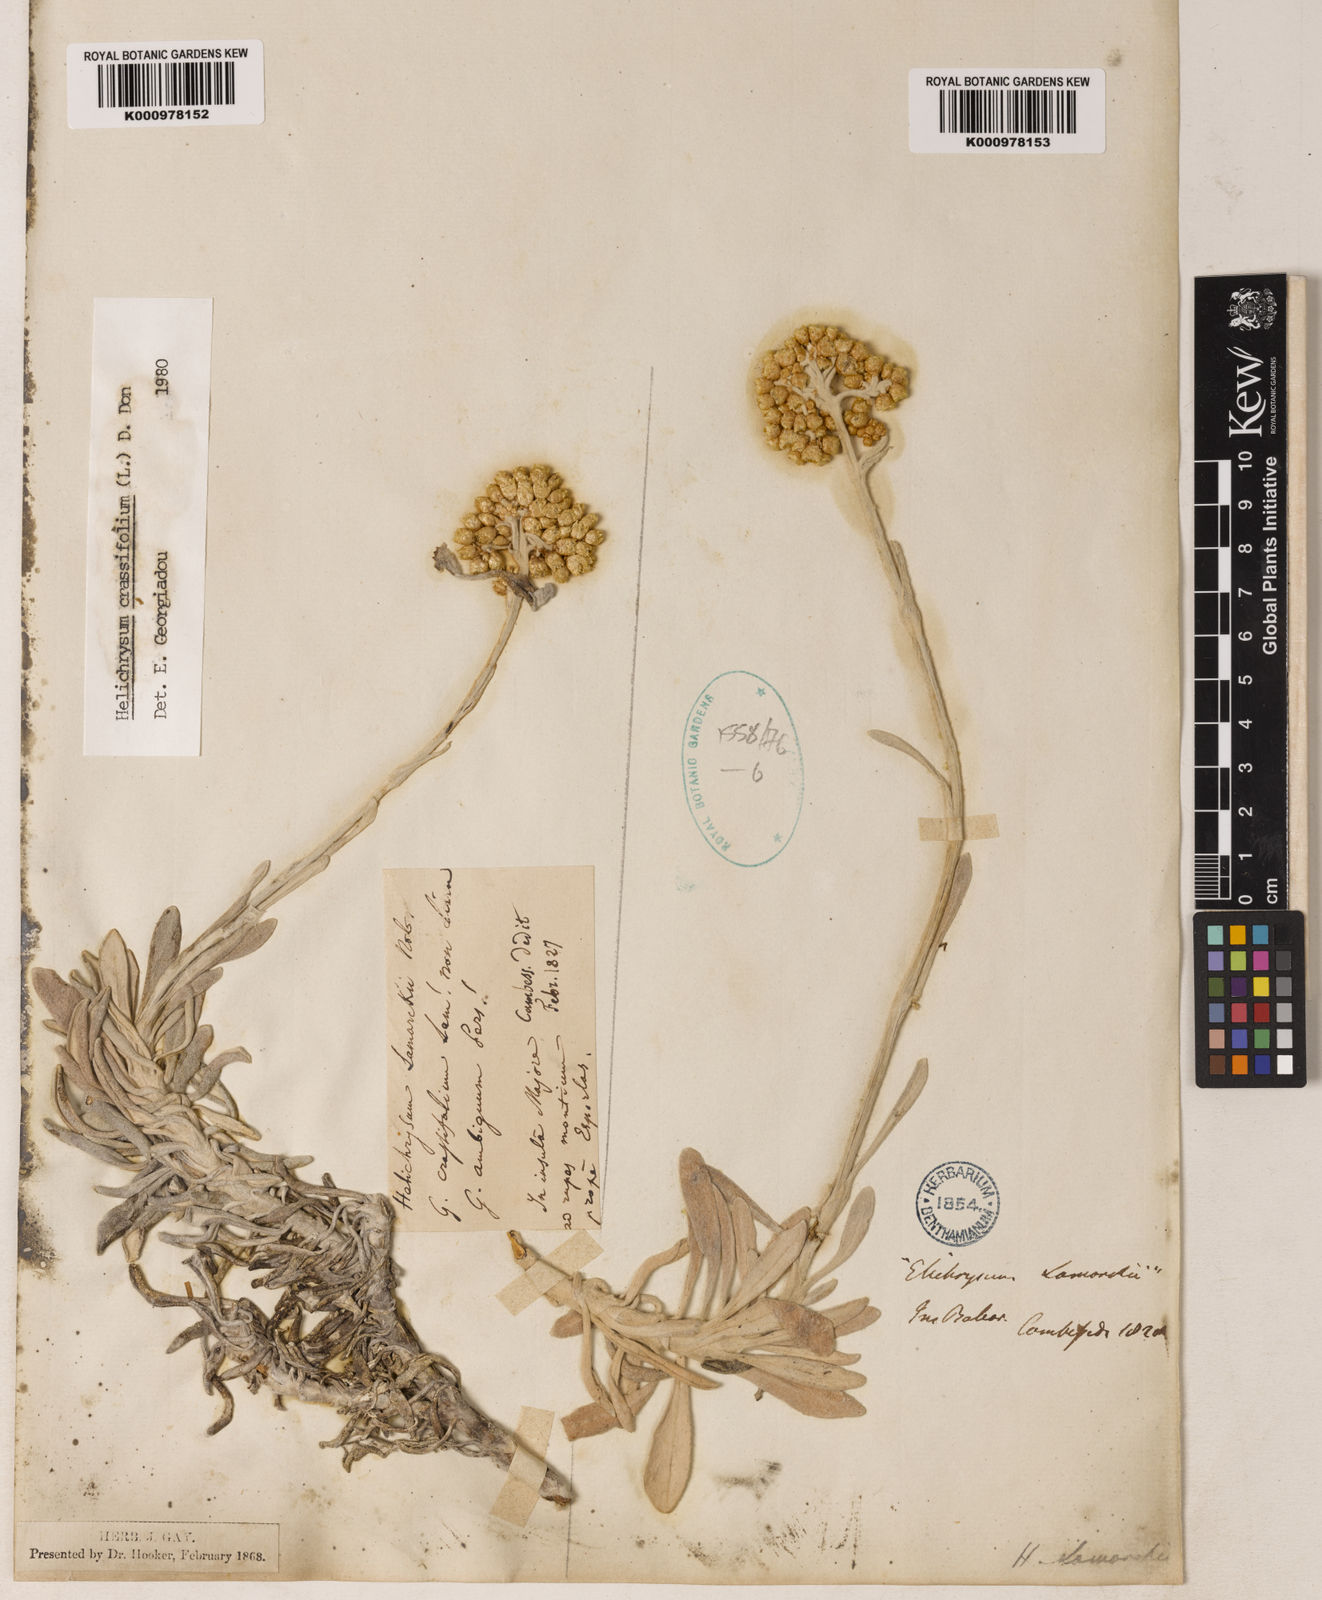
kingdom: Plantae
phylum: Tracheophyta
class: Magnoliopsida
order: Asterales
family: Asteraceae
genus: Leiocarpa
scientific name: Leiocarpa semicalva
